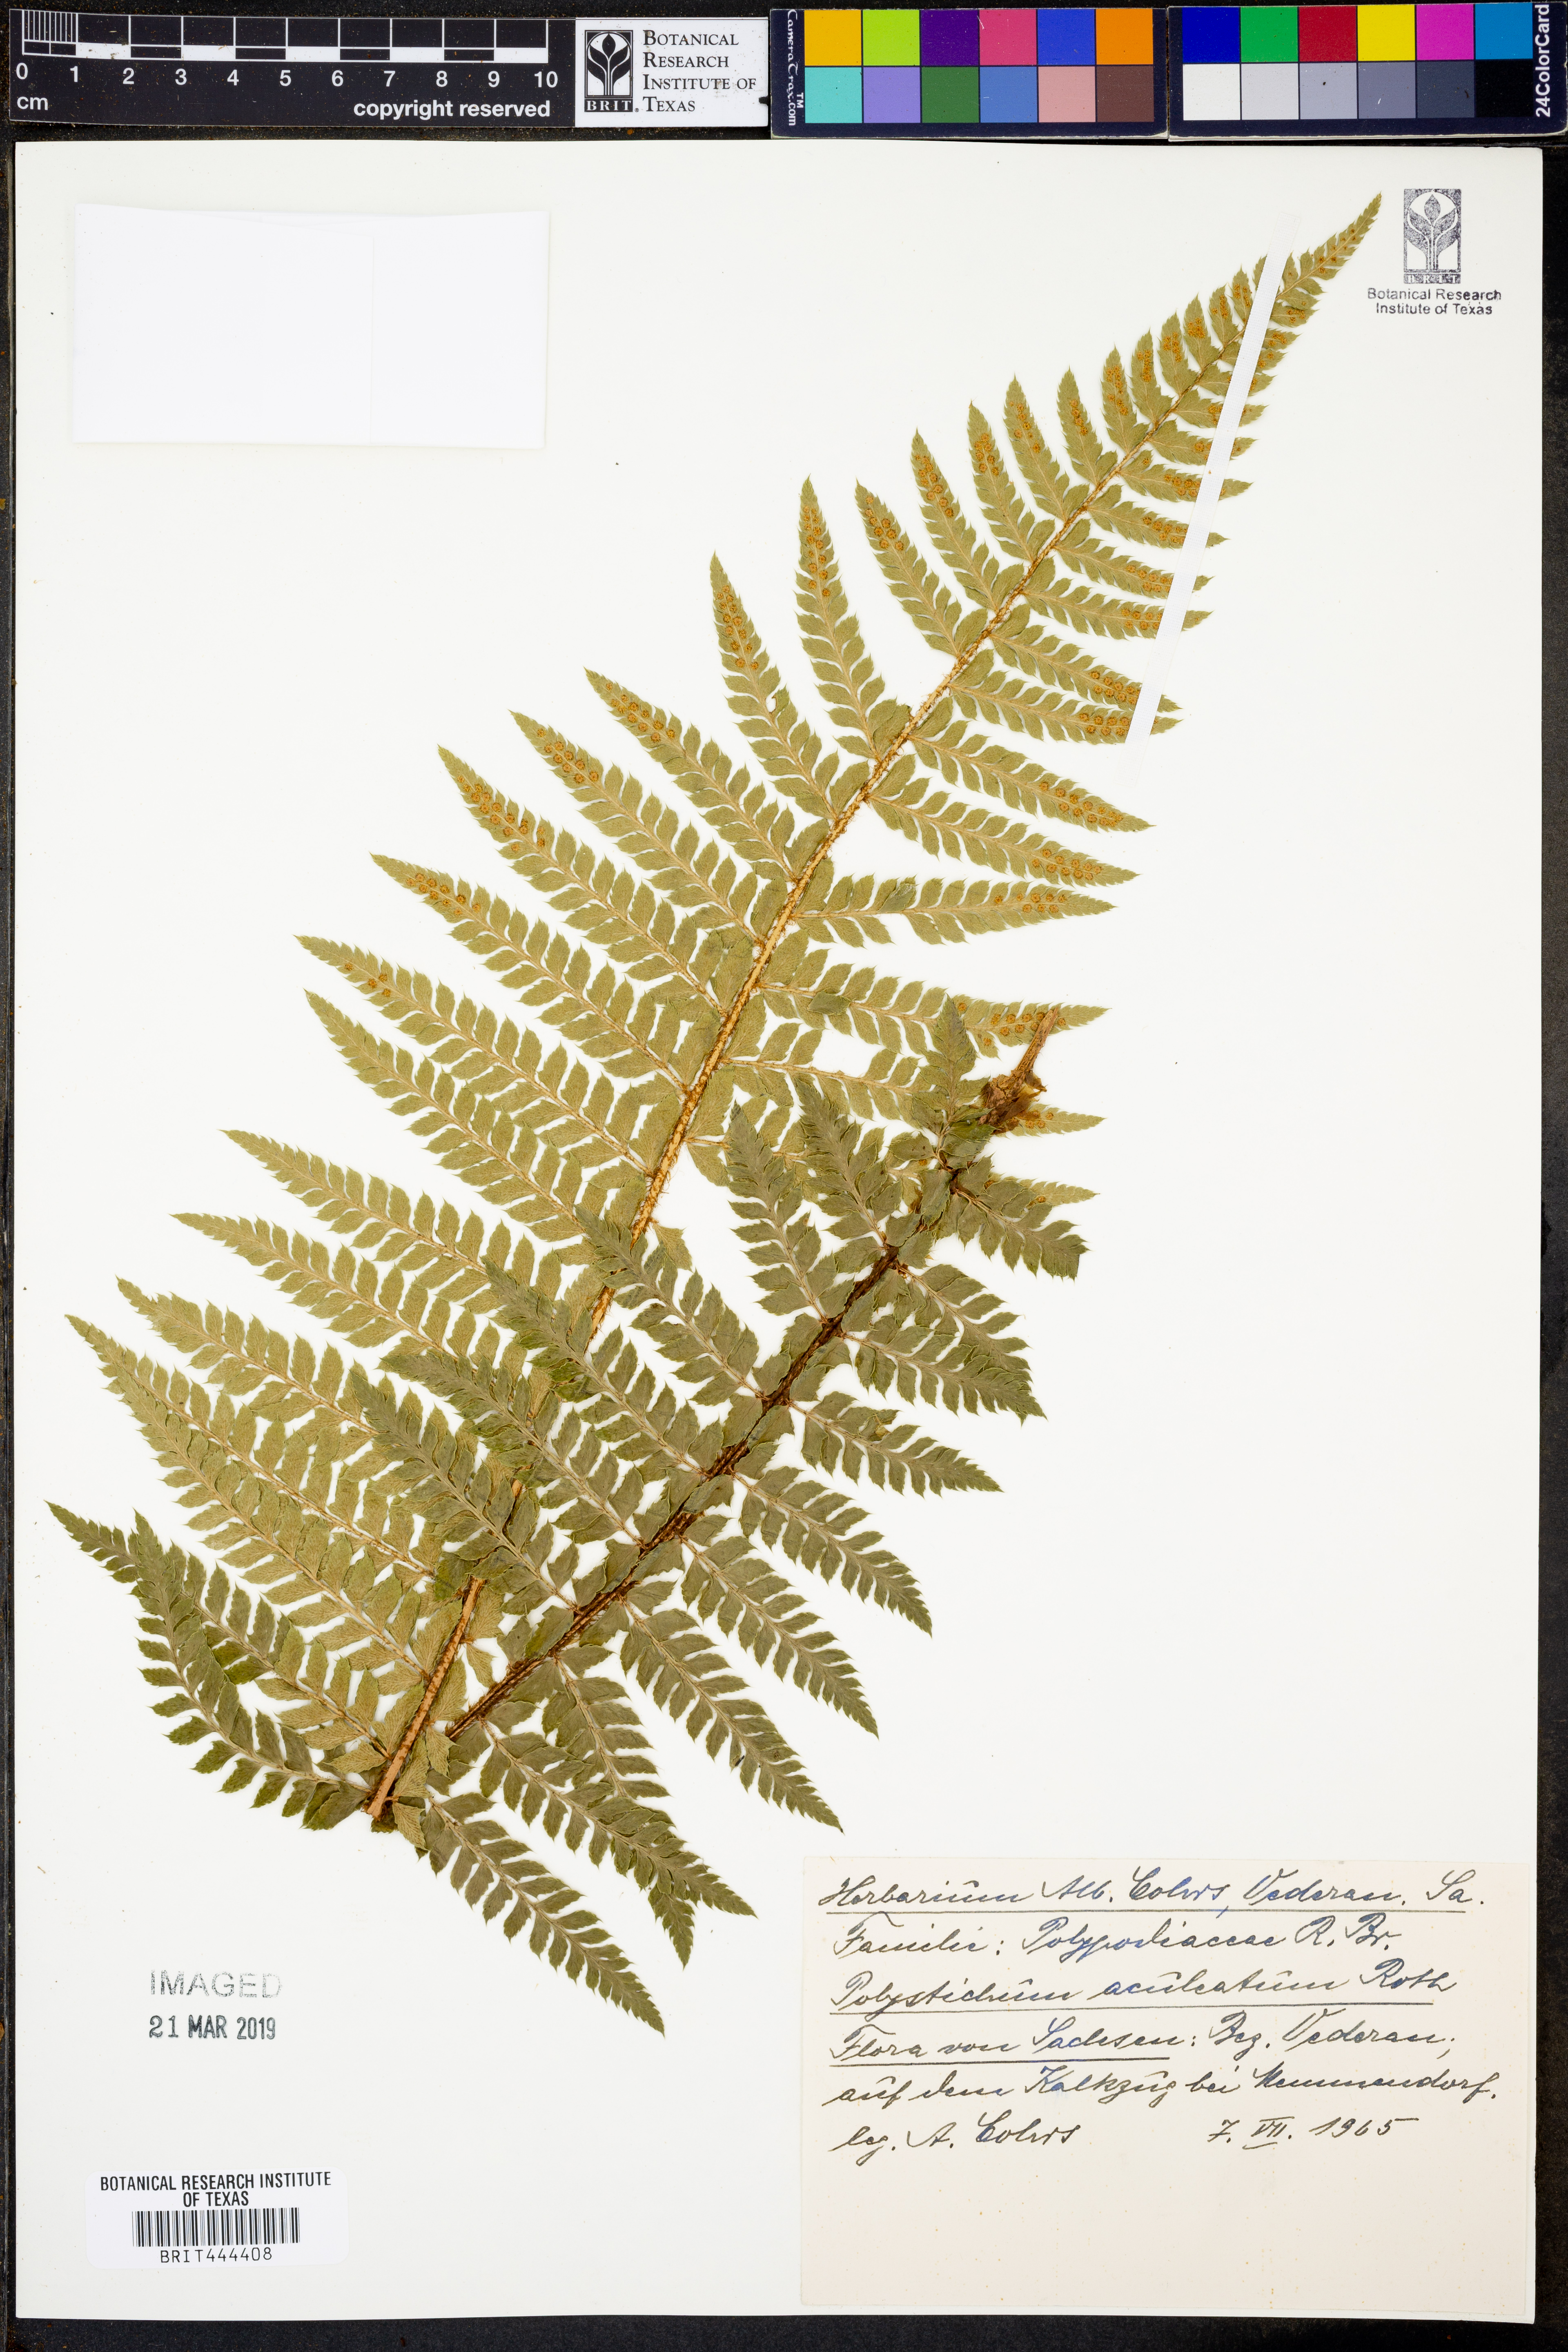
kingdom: Plantae
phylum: Tracheophyta
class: Polypodiopsida
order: Polypodiales
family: Dryopteridaceae
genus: Polystichum
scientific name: Polystichum aculeatum
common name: Hard shield-fern
